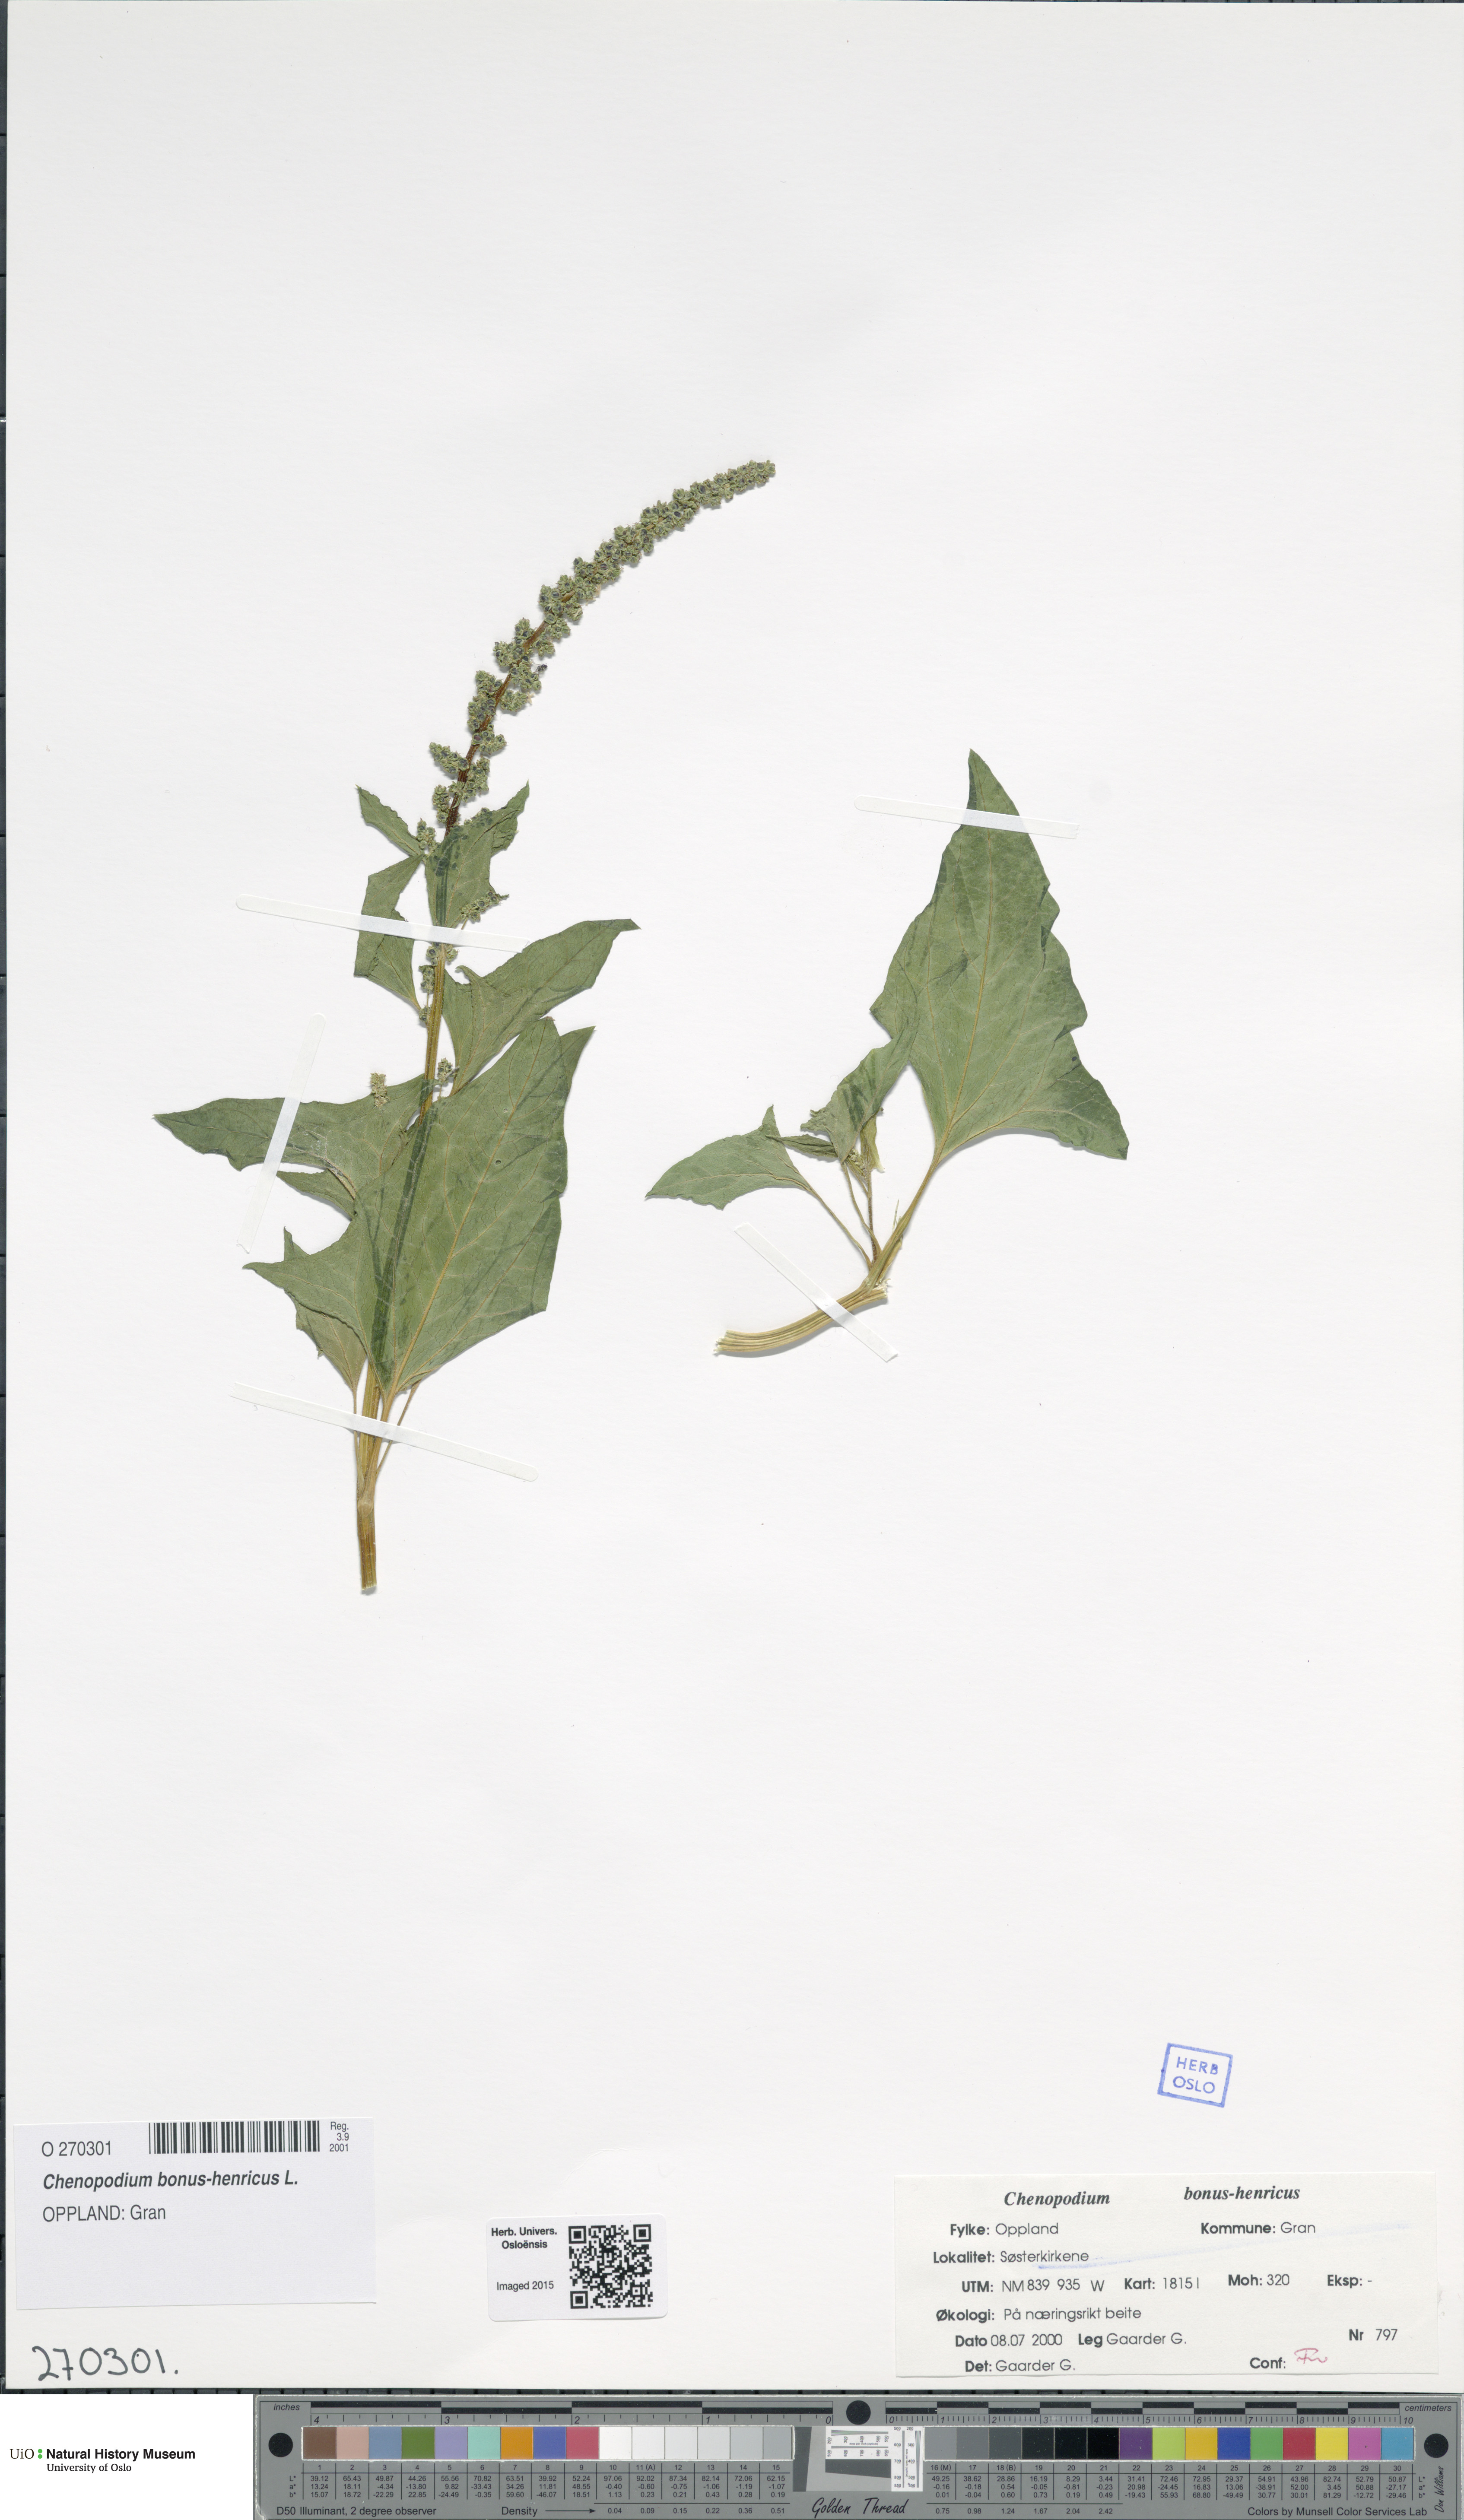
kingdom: Plantae
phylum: Tracheophyta
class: Magnoliopsida
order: Caryophyllales
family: Amaranthaceae
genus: Blitum
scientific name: Blitum bonus-henricus
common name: Good king henry
